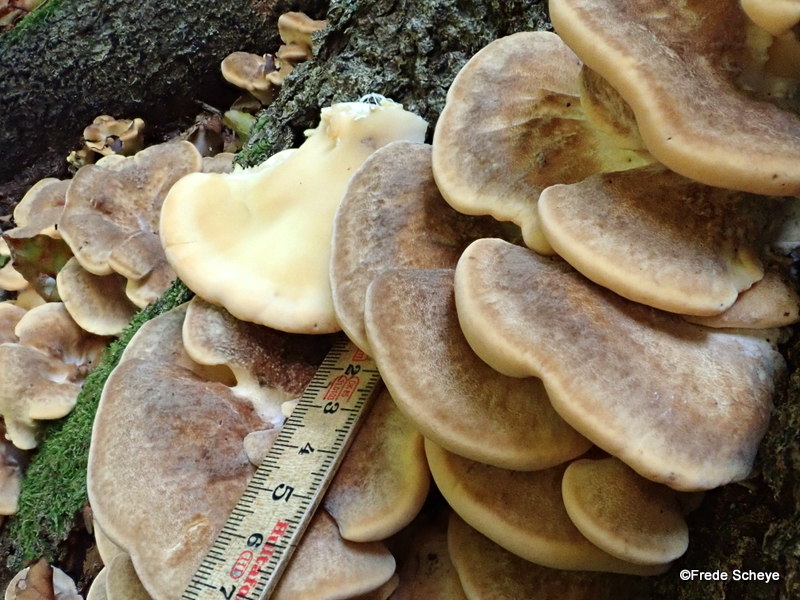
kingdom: Fungi
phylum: Basidiomycota
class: Agaricomycetes
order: Polyporales
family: Meripilaceae
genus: Meripilus
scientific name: Meripilus giganteus
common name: kæmpeporesvamp
